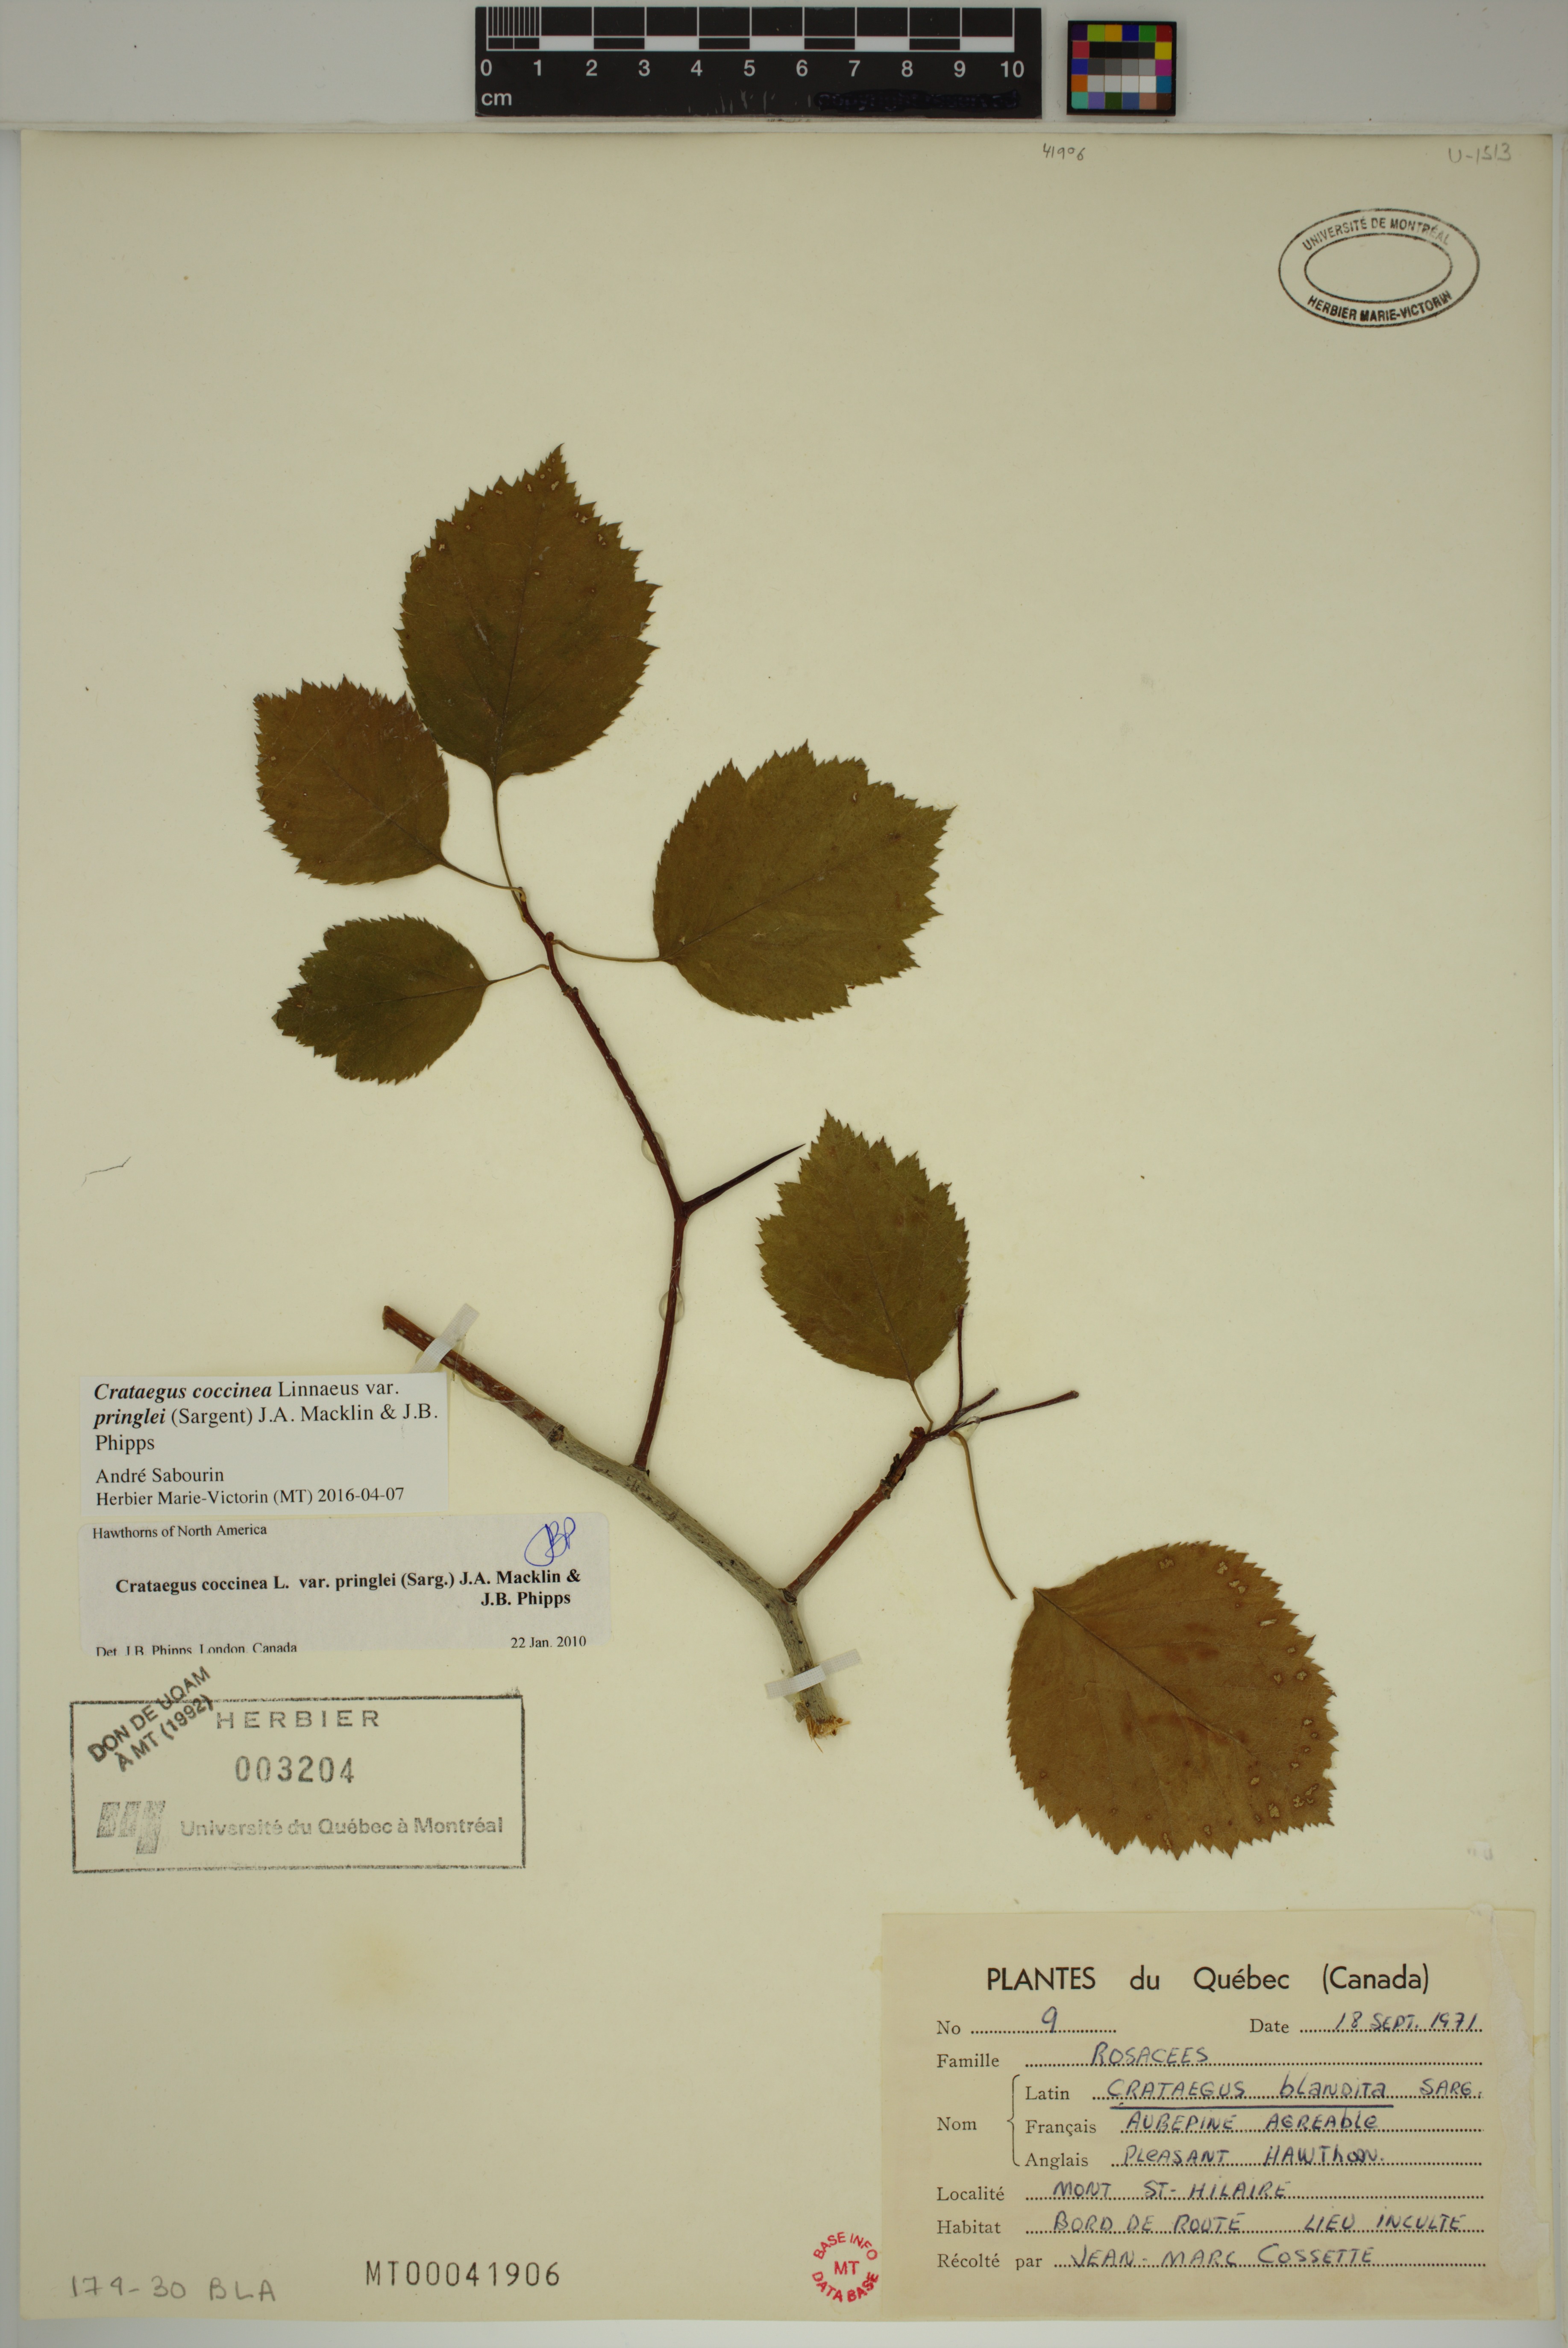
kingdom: Plantae
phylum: Tracheophyta
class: Magnoliopsida
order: Rosales
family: Rosaceae
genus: Crataegus
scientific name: Crataegus
